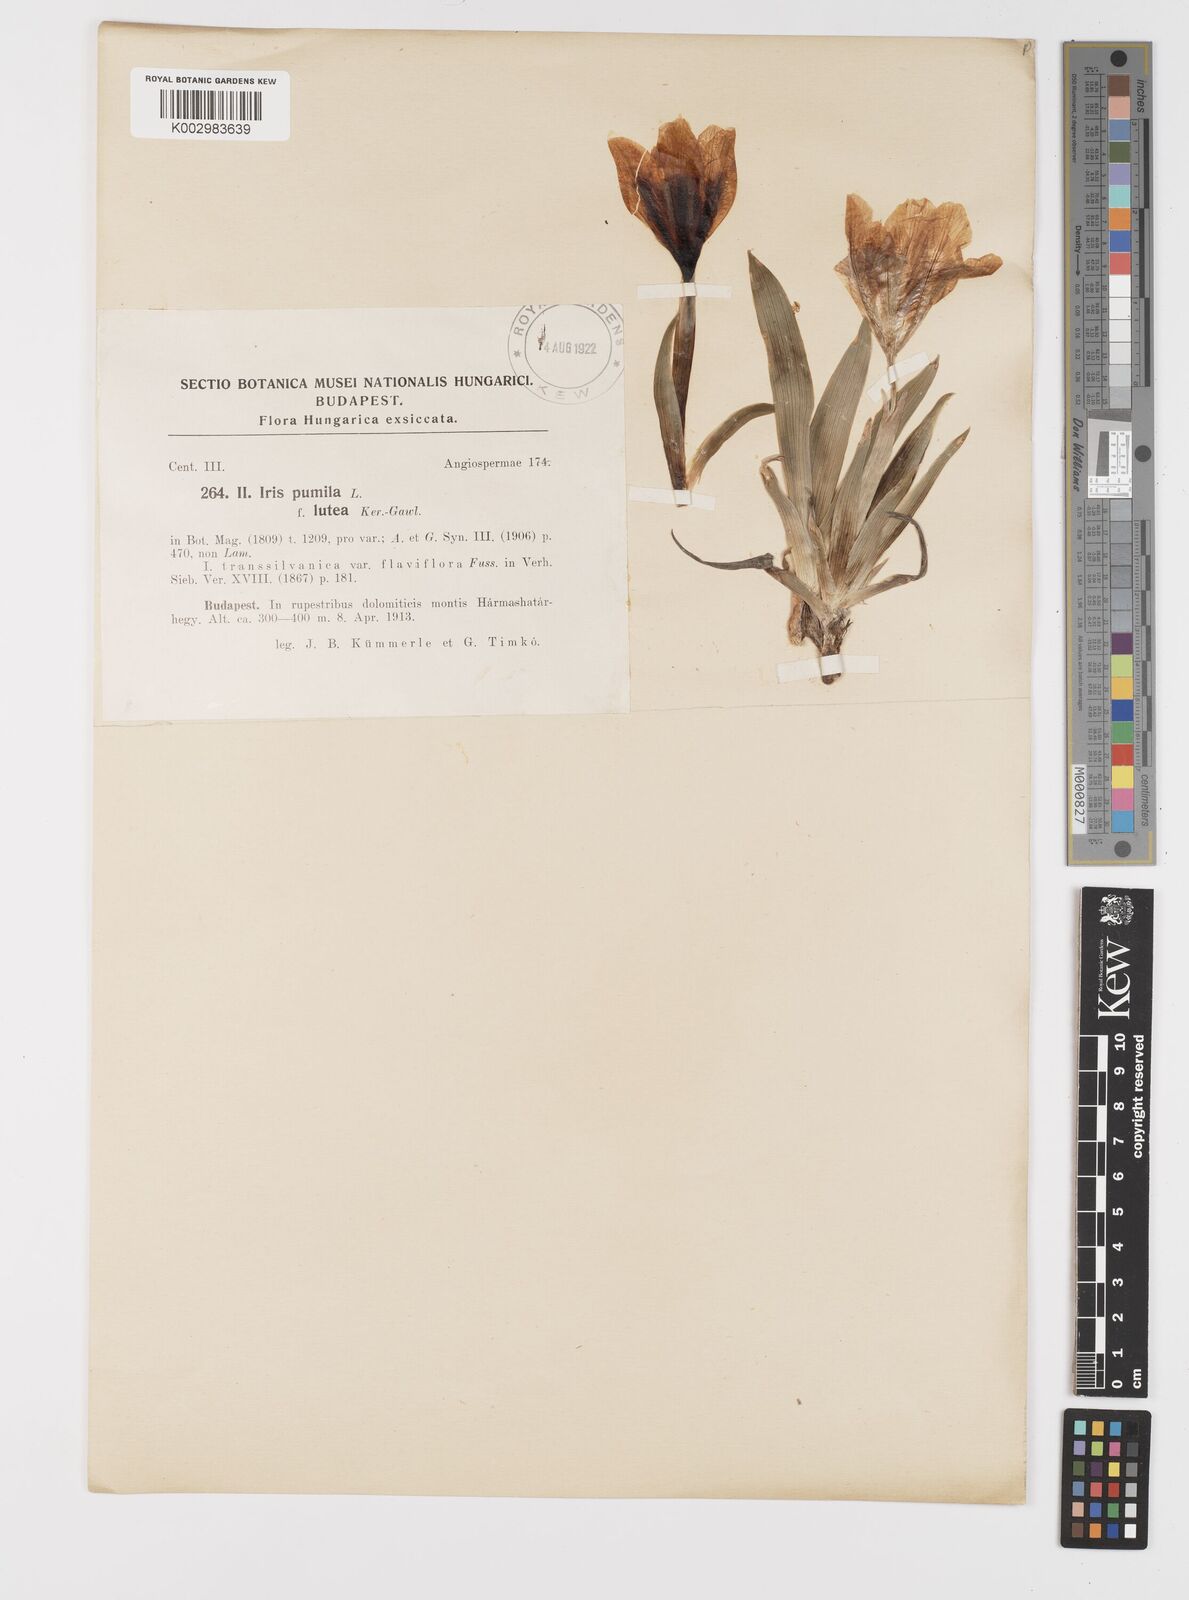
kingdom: Plantae
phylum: Tracheophyta
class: Liliopsida
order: Asparagales
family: Iridaceae
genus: Iris
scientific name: Iris pumila
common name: Dwarf iris
